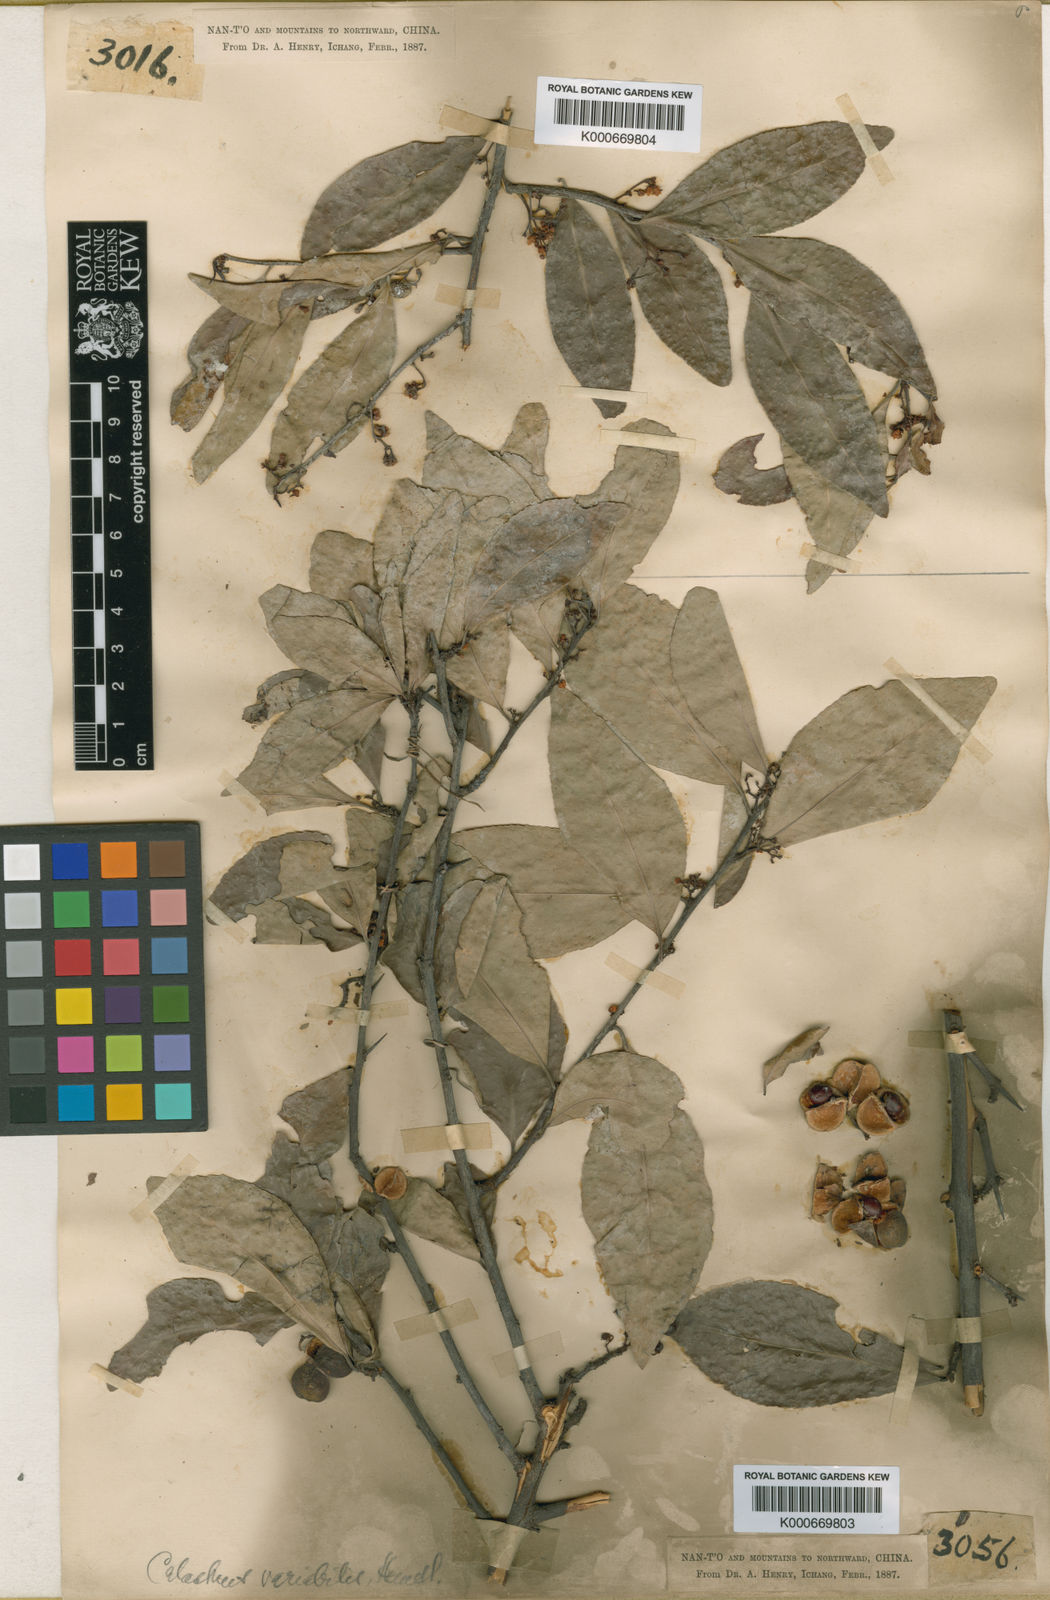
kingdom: Plantae
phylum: Tracheophyta
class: Magnoliopsida
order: Celastrales
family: Celastraceae
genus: Gymnosporia
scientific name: Gymnosporia variabilis
